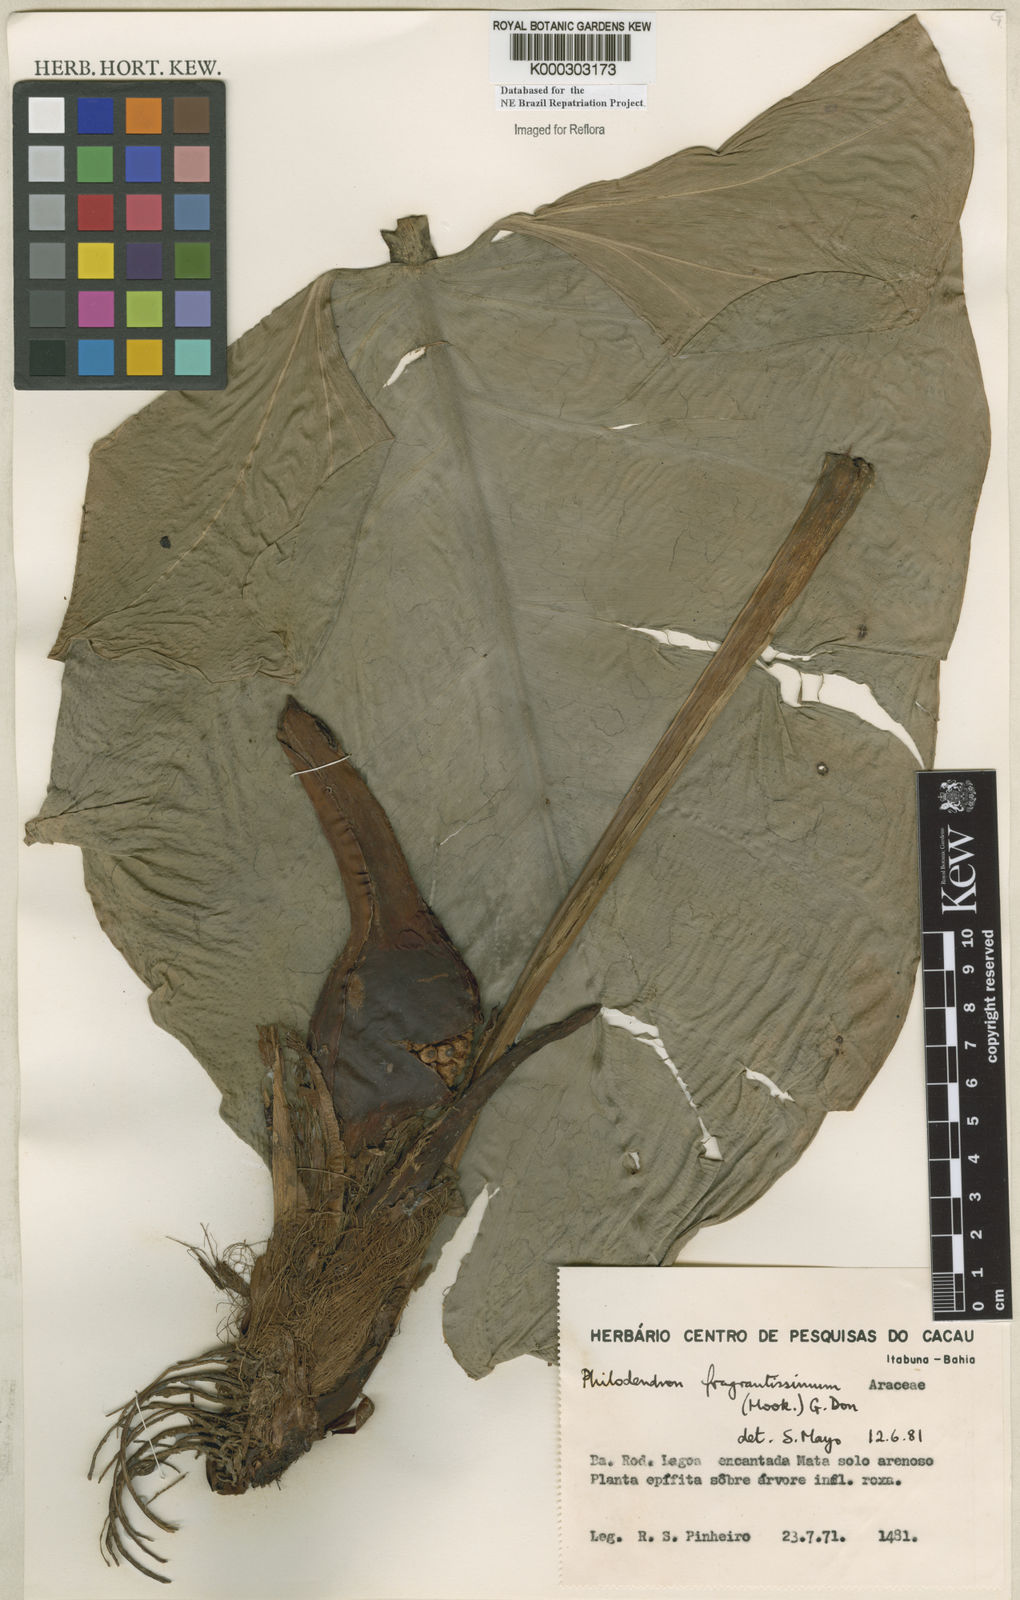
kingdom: Plantae
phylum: Tracheophyta
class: Liliopsida
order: Alismatales
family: Araceae
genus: Philodendron
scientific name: Philodendron fragrantissimum
